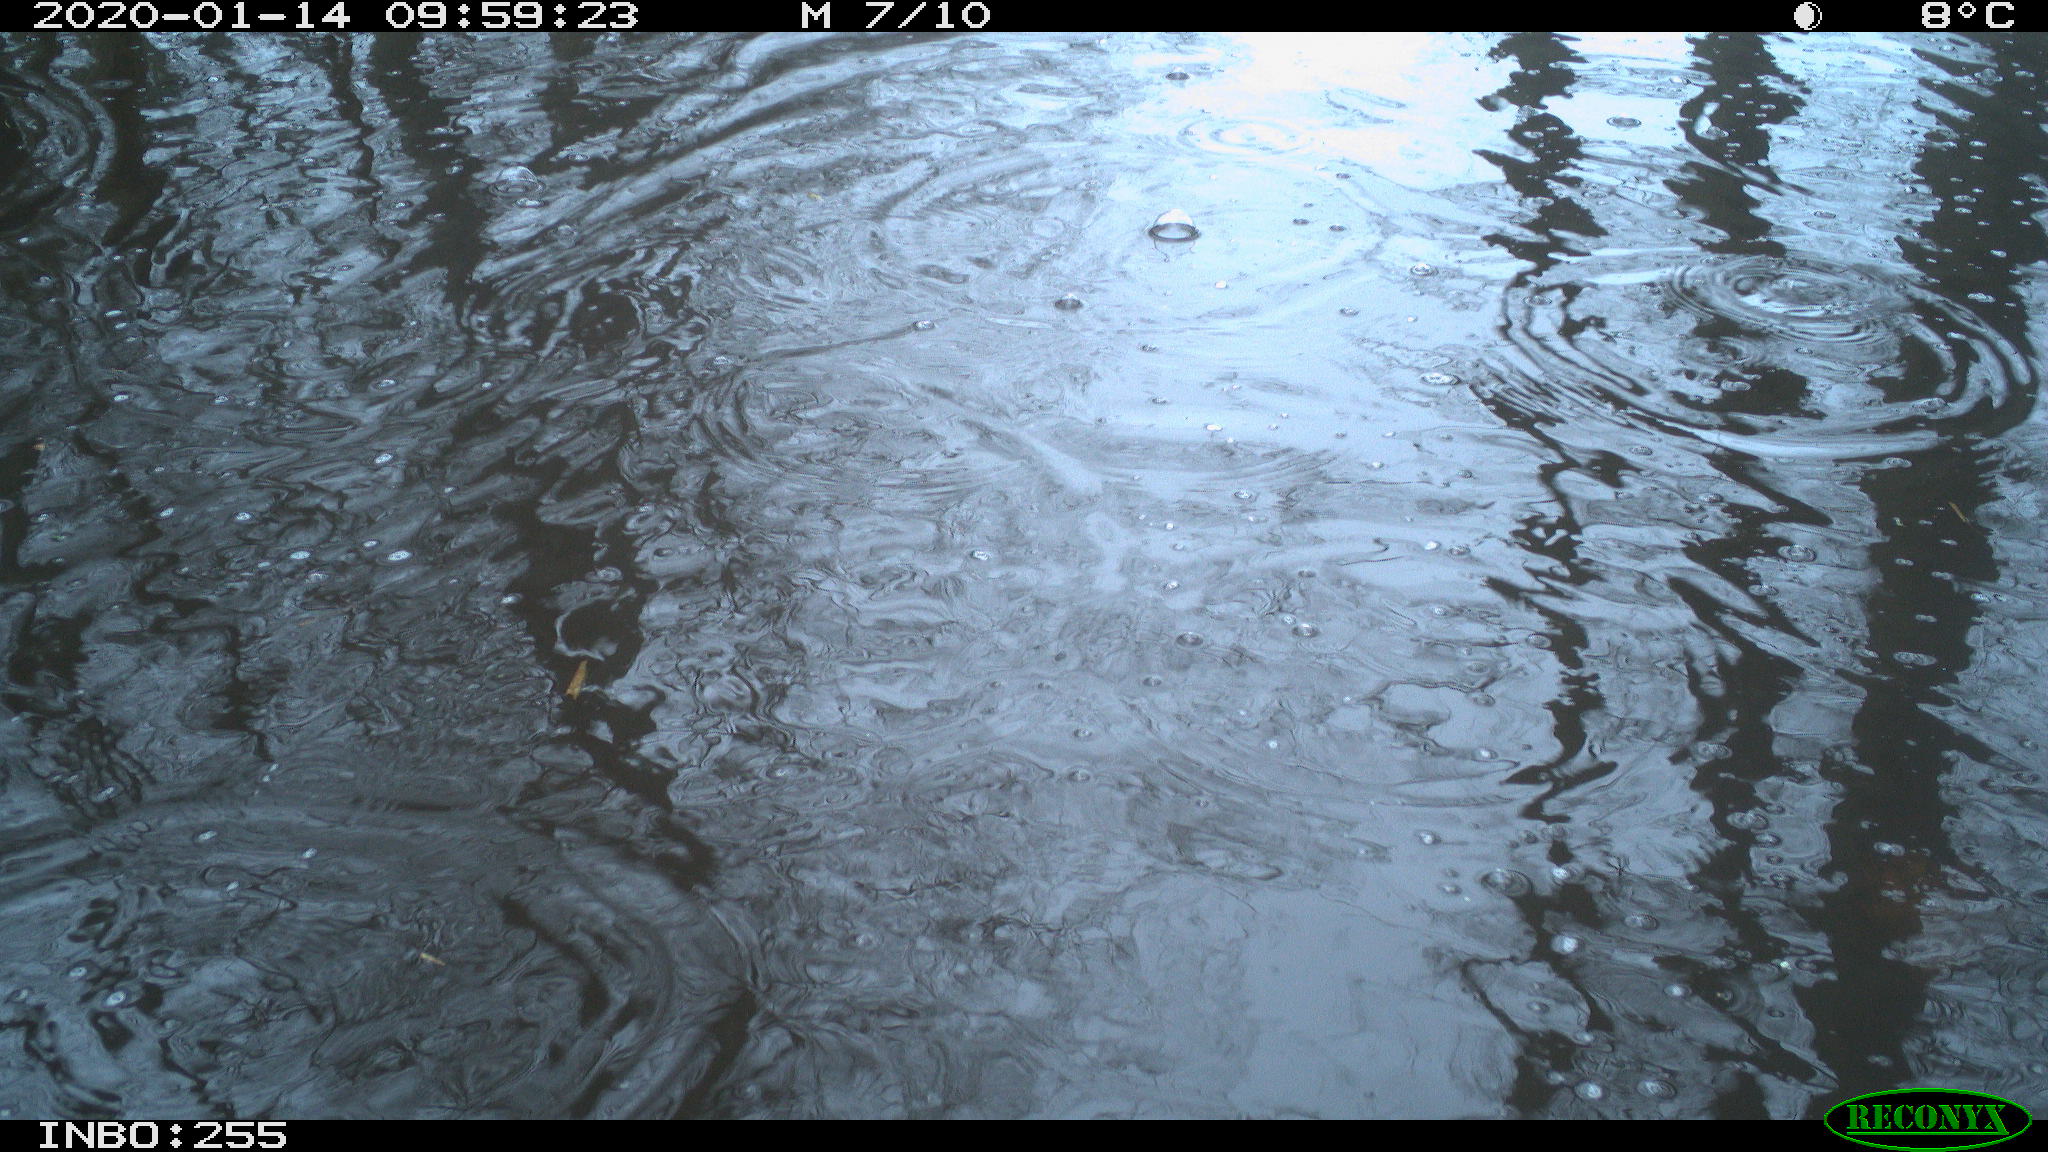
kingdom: Animalia
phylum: Chordata
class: Aves
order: Anseriformes
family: Anatidae
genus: Anas
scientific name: Anas platyrhynchos
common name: Mallard
